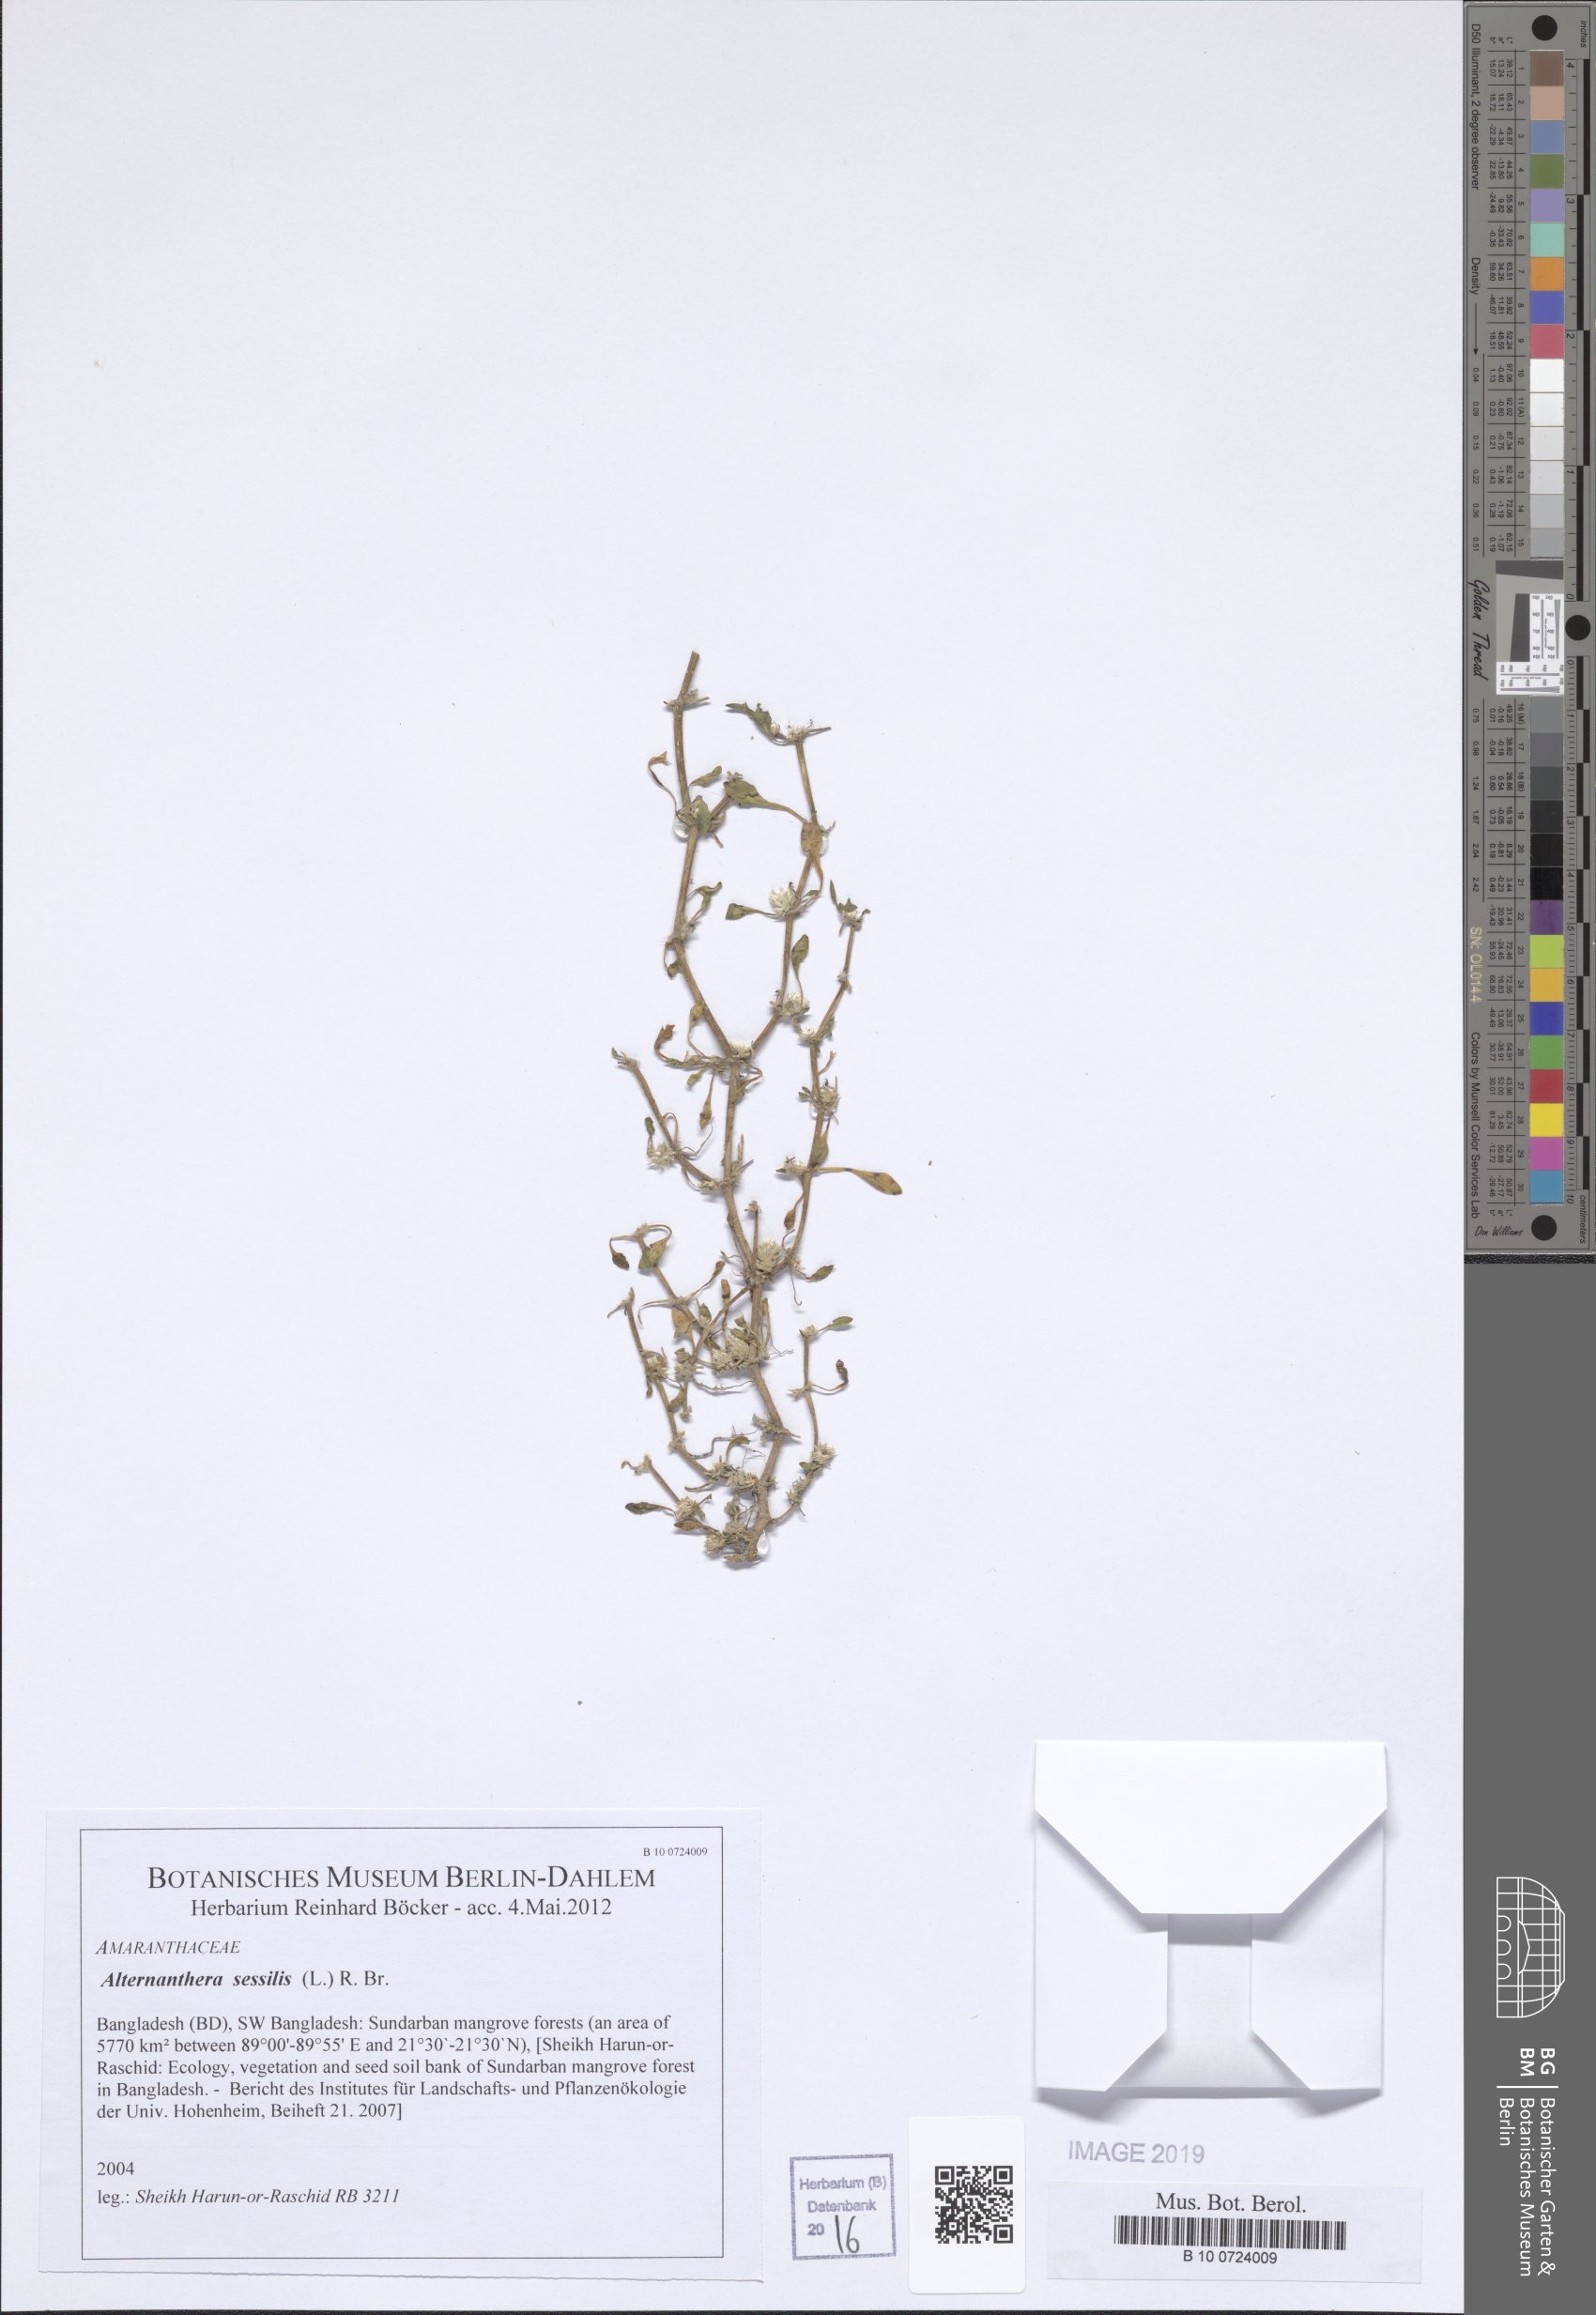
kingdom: Plantae
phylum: Tracheophyta
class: Magnoliopsida
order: Caryophyllales
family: Amaranthaceae
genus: Alternanthera
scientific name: Alternanthera sessilis
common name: Sessile joyweed
